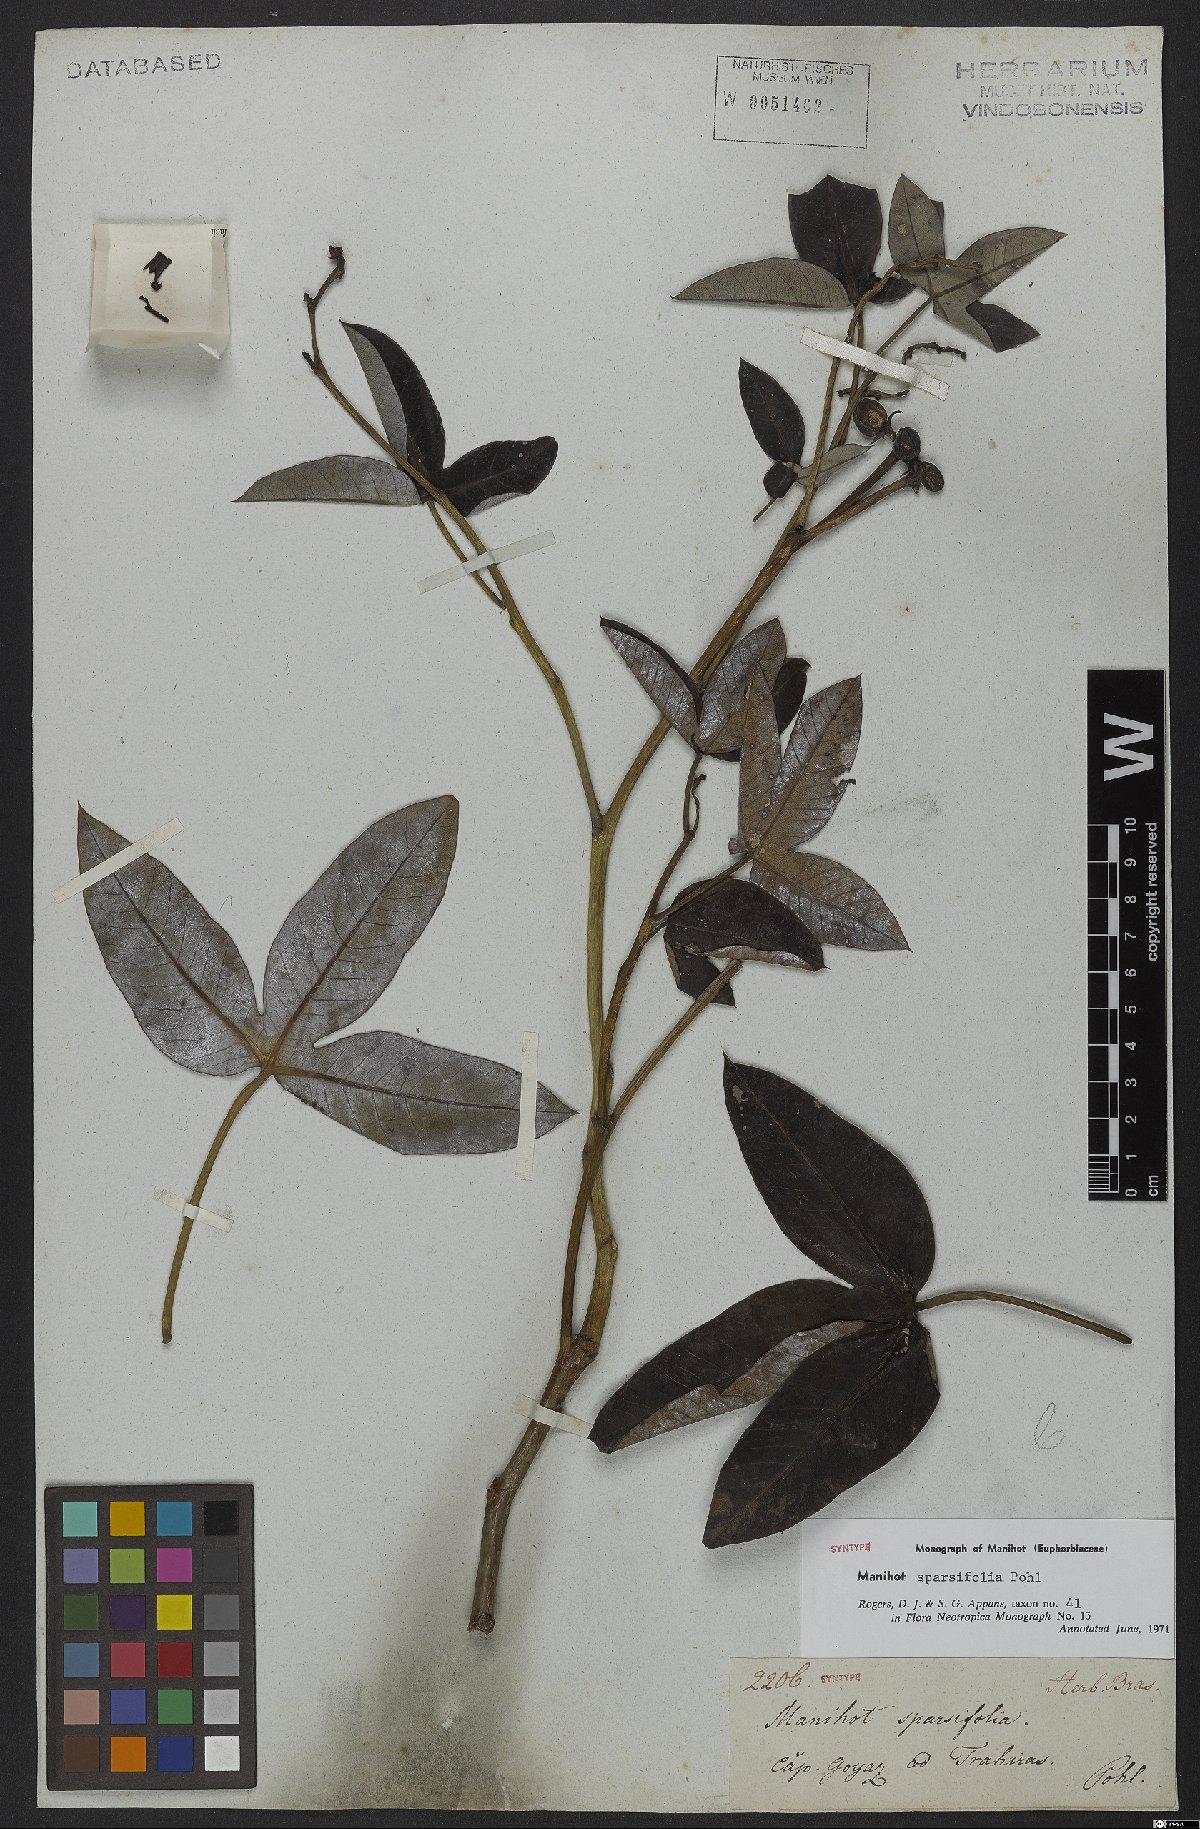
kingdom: Plantae
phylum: Tracheophyta
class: Magnoliopsida
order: Malpighiales
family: Euphorbiaceae
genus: Manihot
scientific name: Manihot sparsifolia
